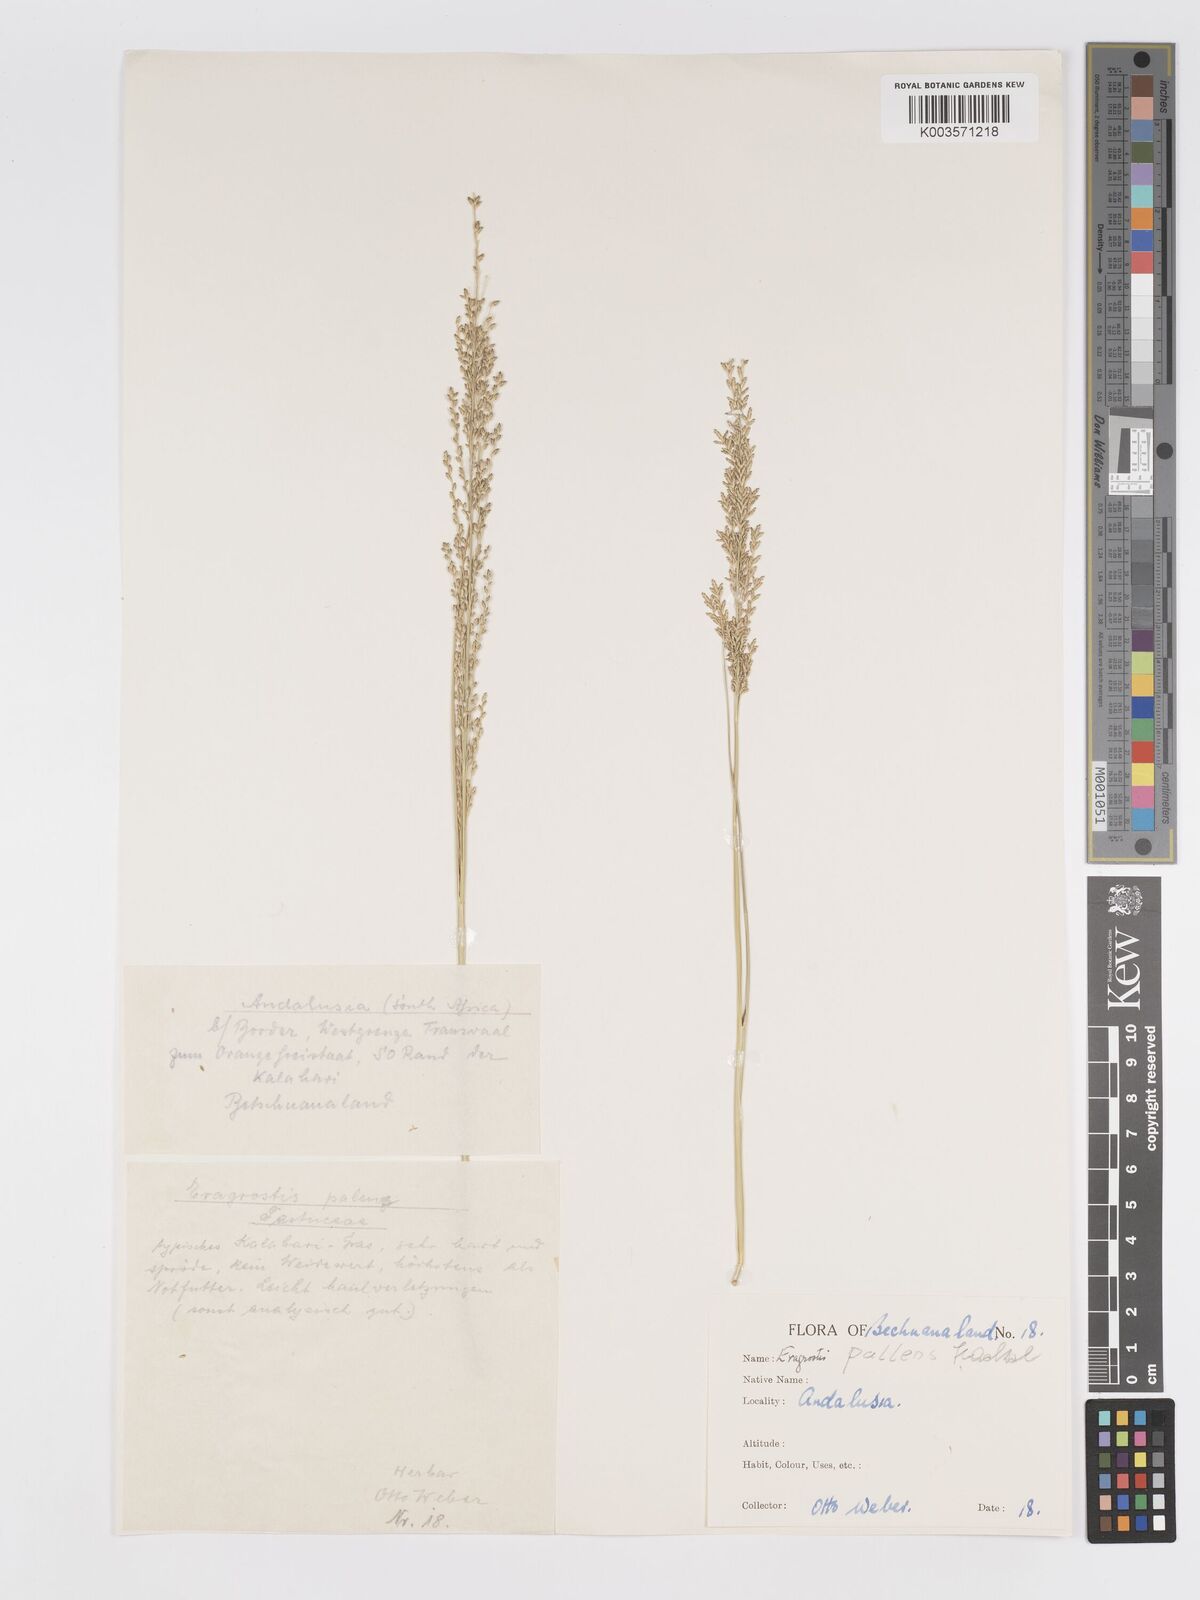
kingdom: Plantae
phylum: Tracheophyta
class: Liliopsida
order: Poales
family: Poaceae
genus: Eragrostis
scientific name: Eragrostis pallens
